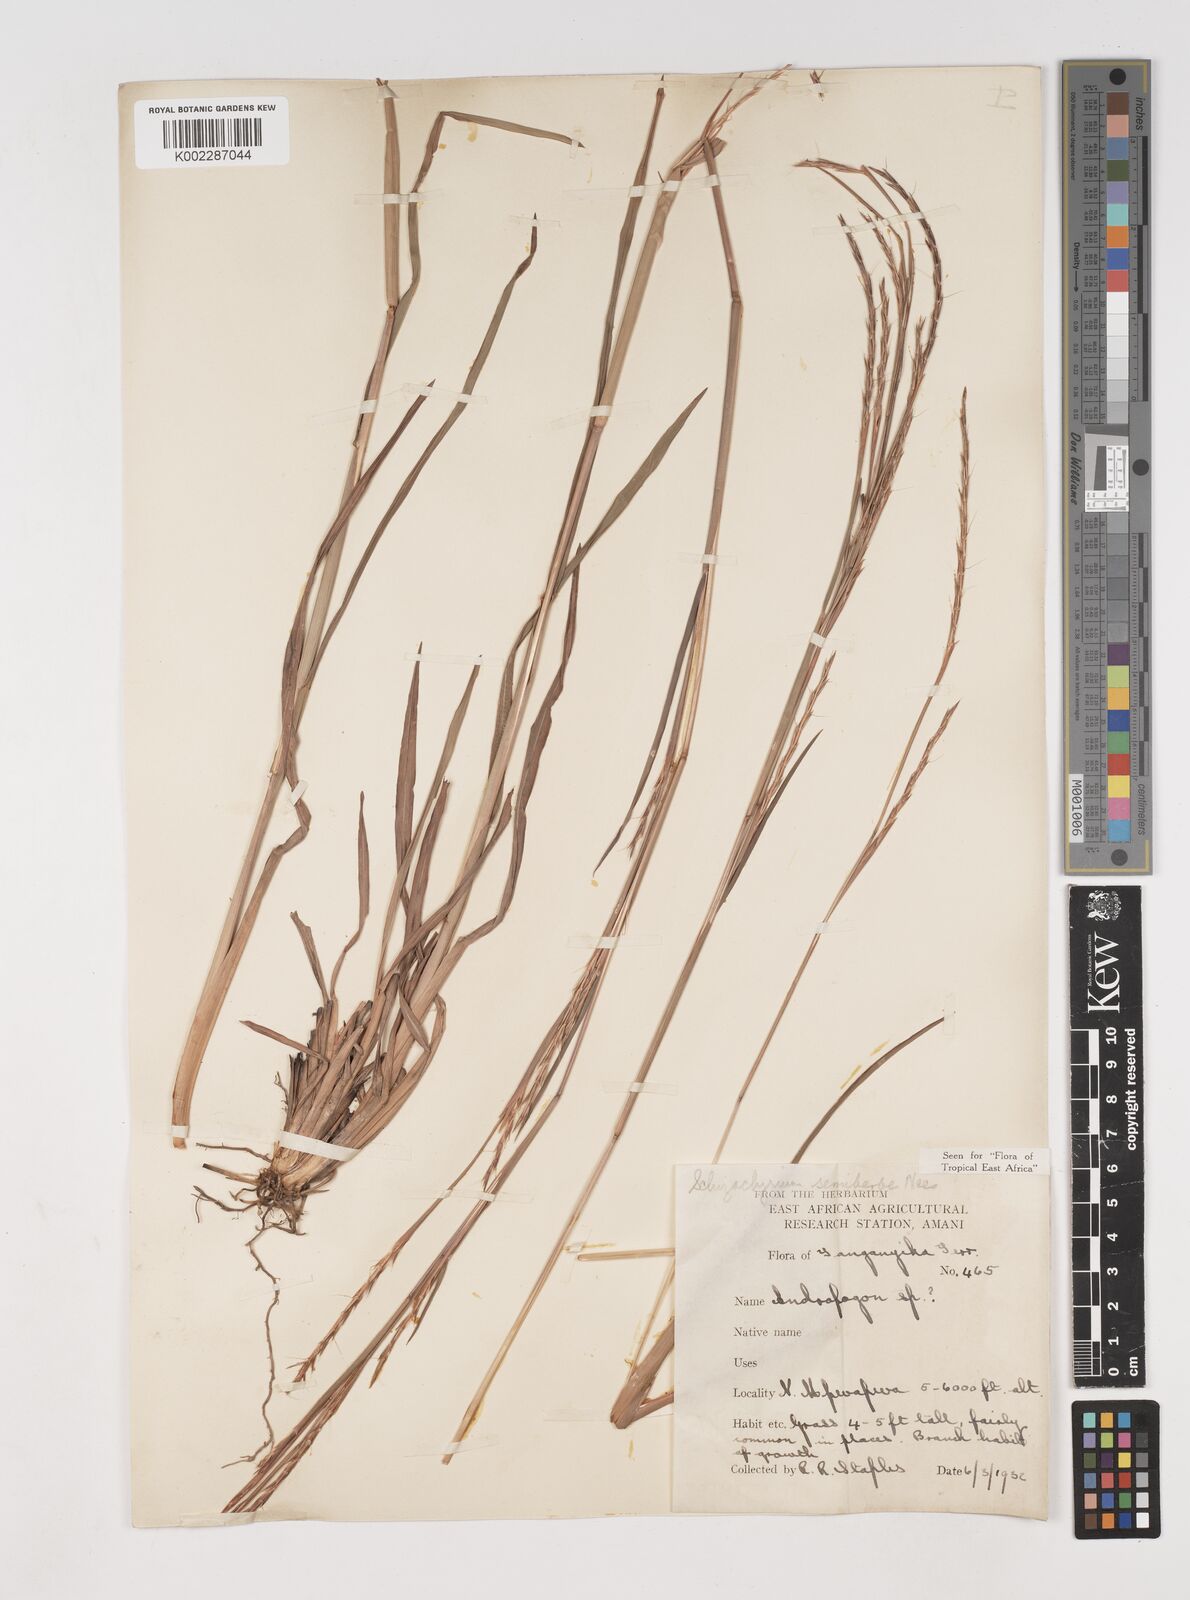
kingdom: Plantae
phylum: Tracheophyta
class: Liliopsida
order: Poales
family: Poaceae
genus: Schizachyrium
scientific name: Schizachyrium sanguineum
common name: Crimson bluestem
